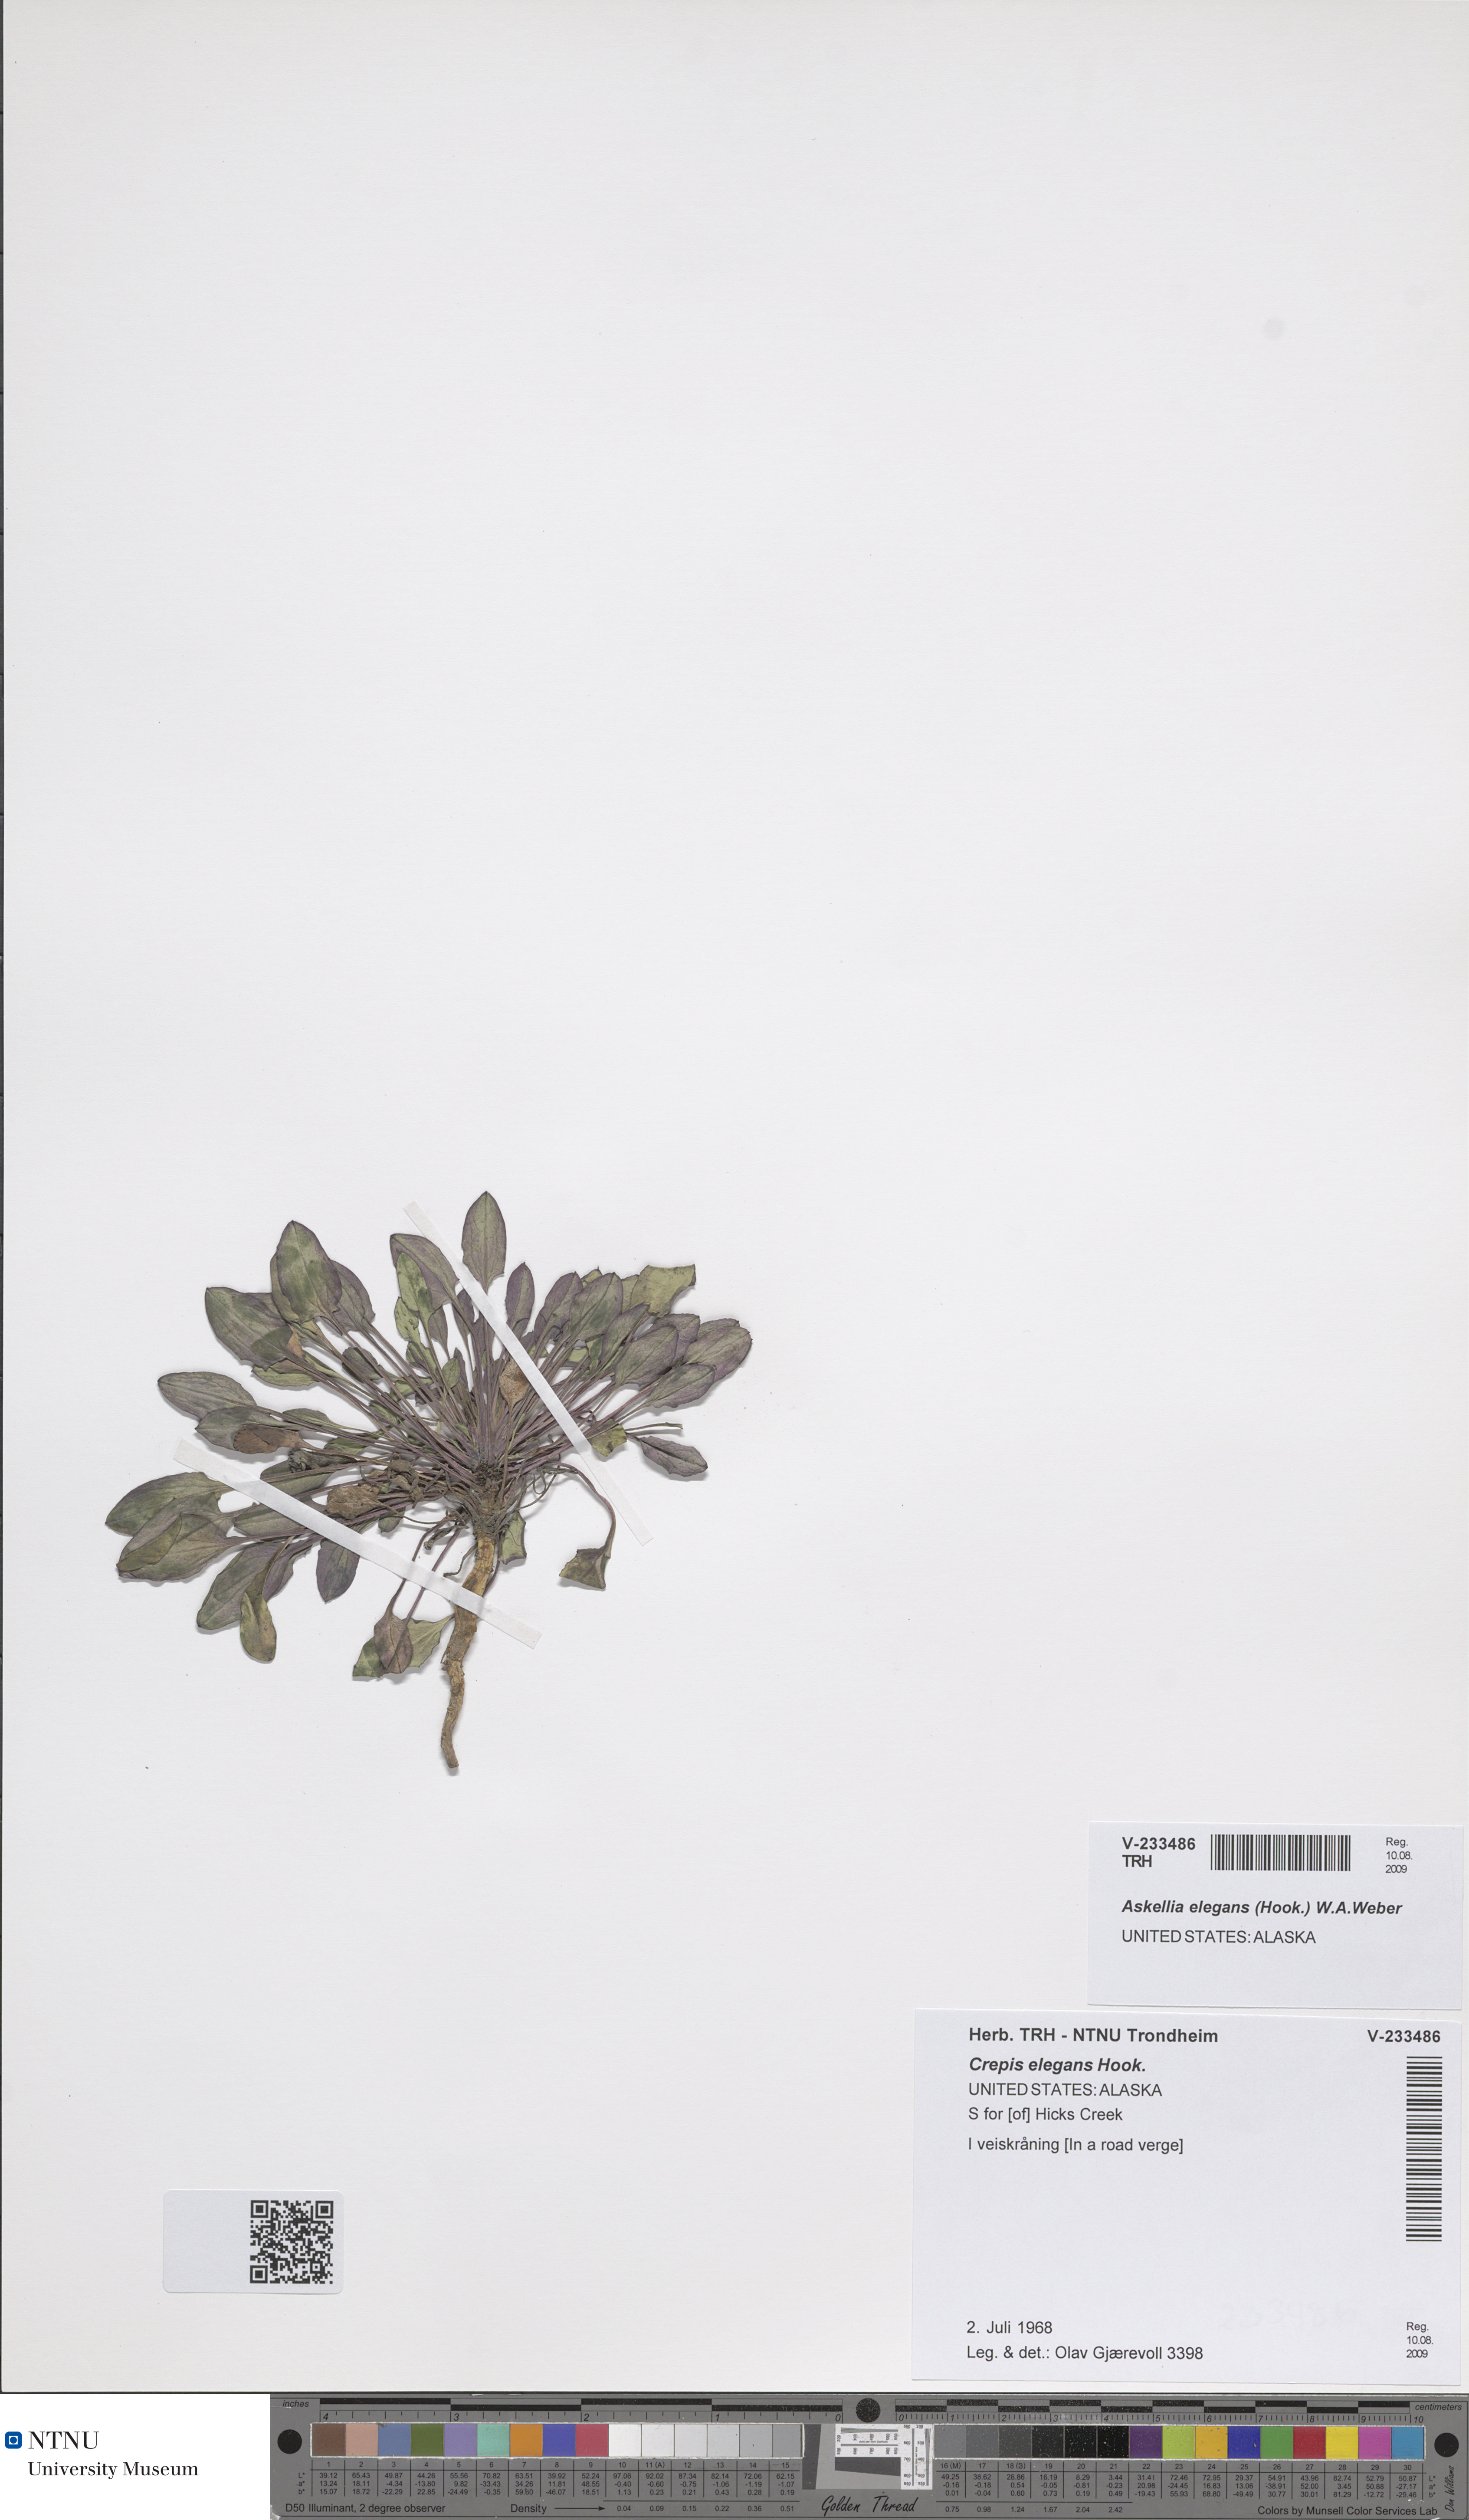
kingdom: Plantae
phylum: Tracheophyta
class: Magnoliopsida
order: Asterales
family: Asteraceae
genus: Askellia
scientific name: Askellia elegans
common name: Elegant hawksbeard
